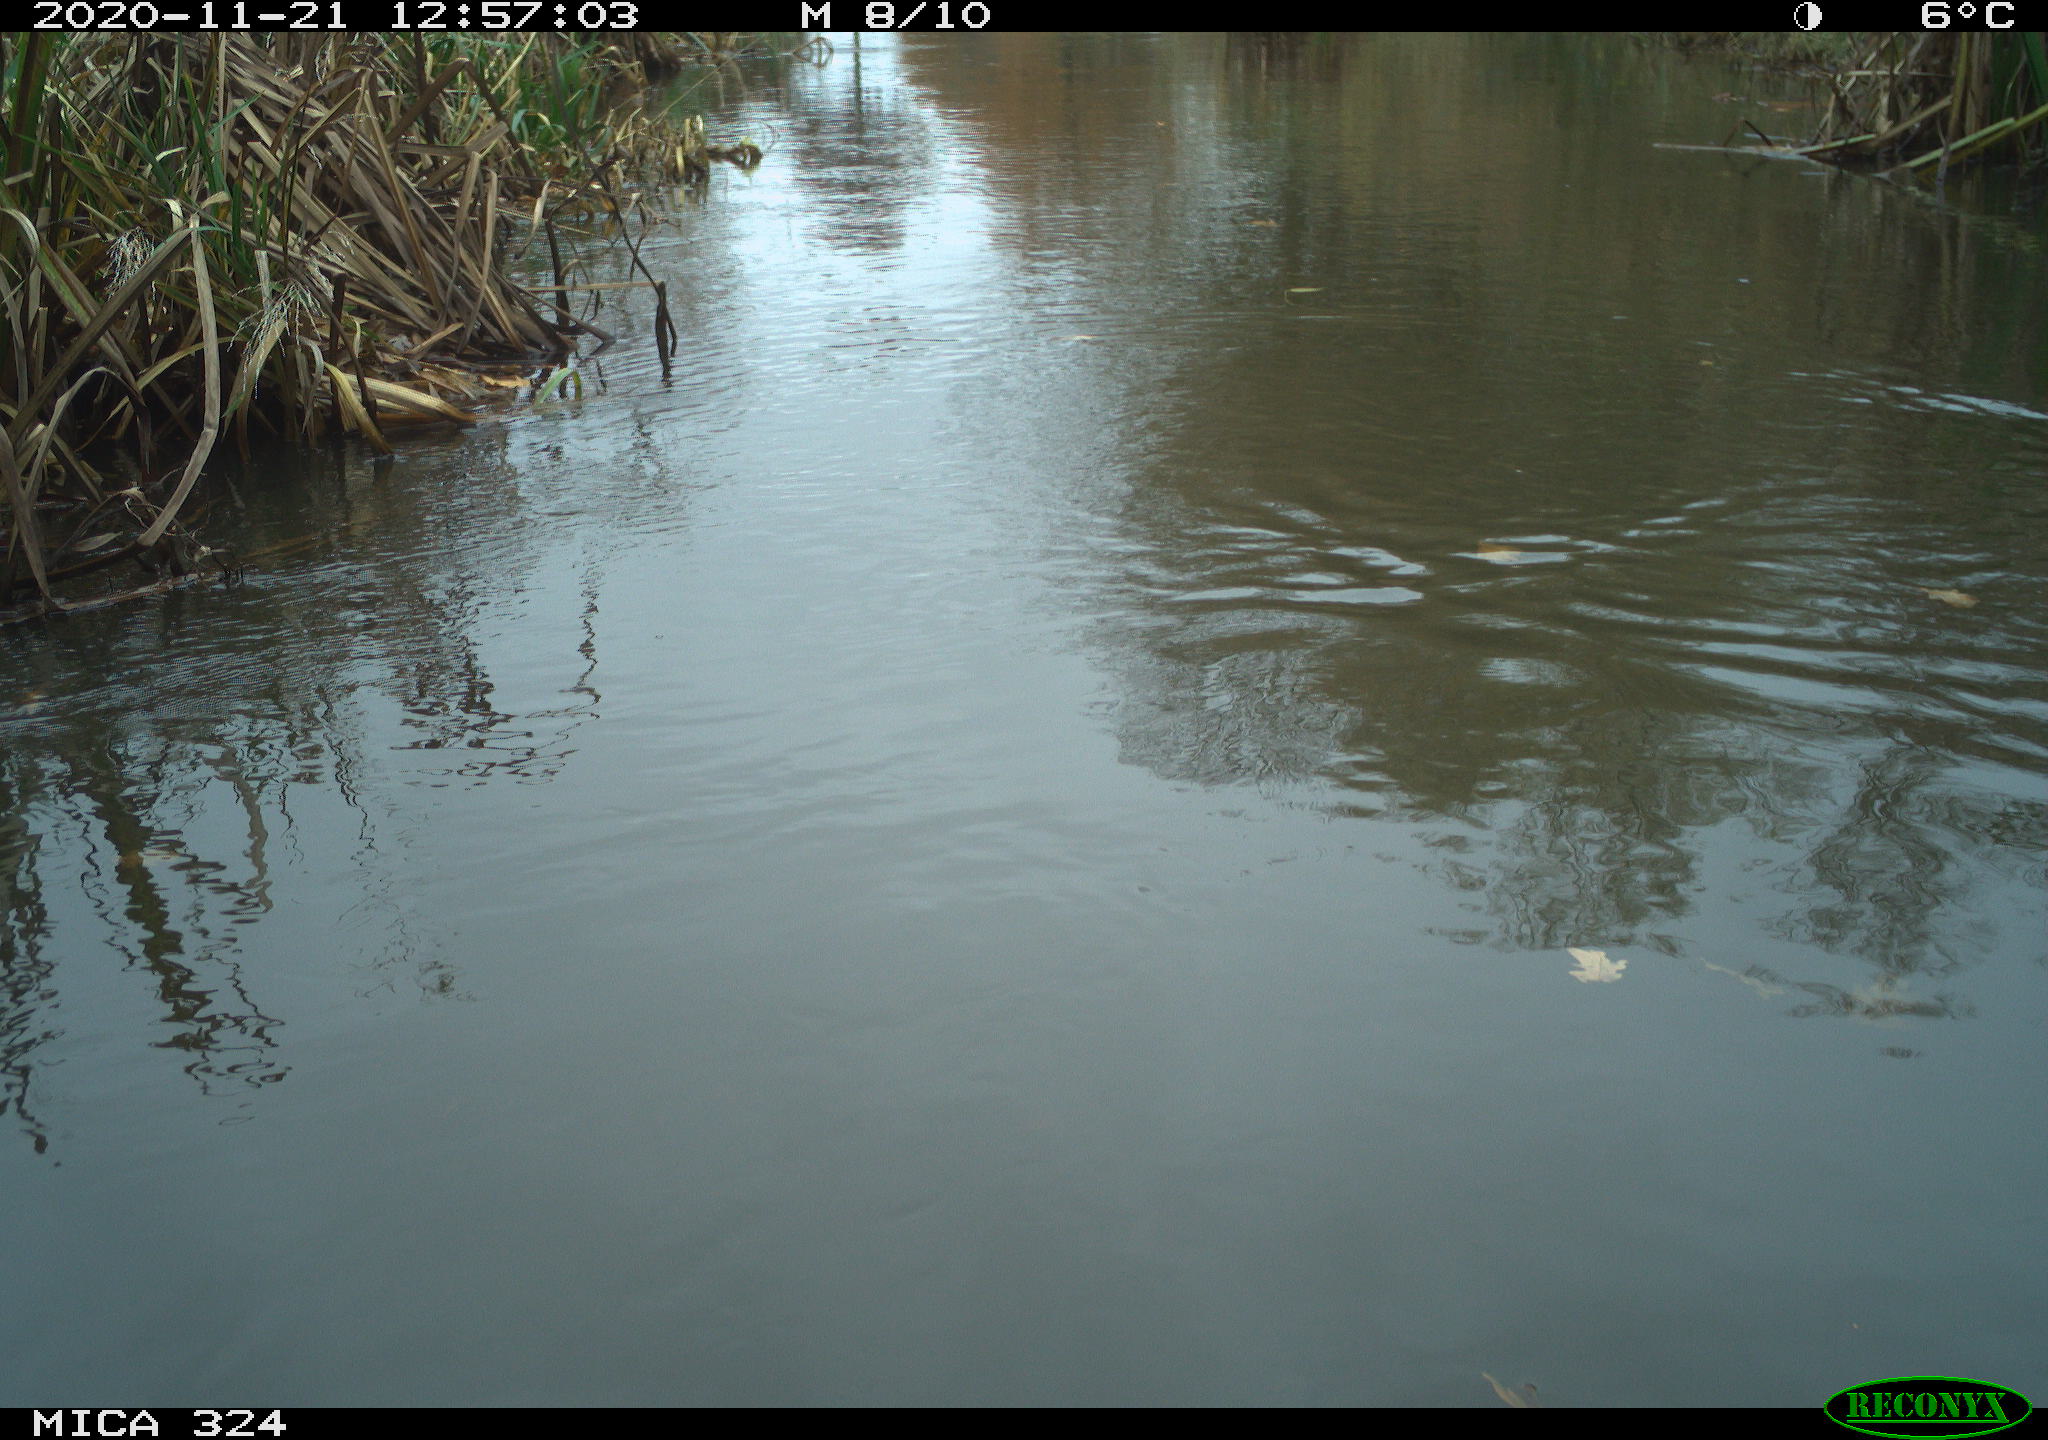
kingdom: Animalia
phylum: Chordata
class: Aves
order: Gruiformes
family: Rallidae
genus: Gallinula
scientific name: Gallinula chloropus
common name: Common moorhen
